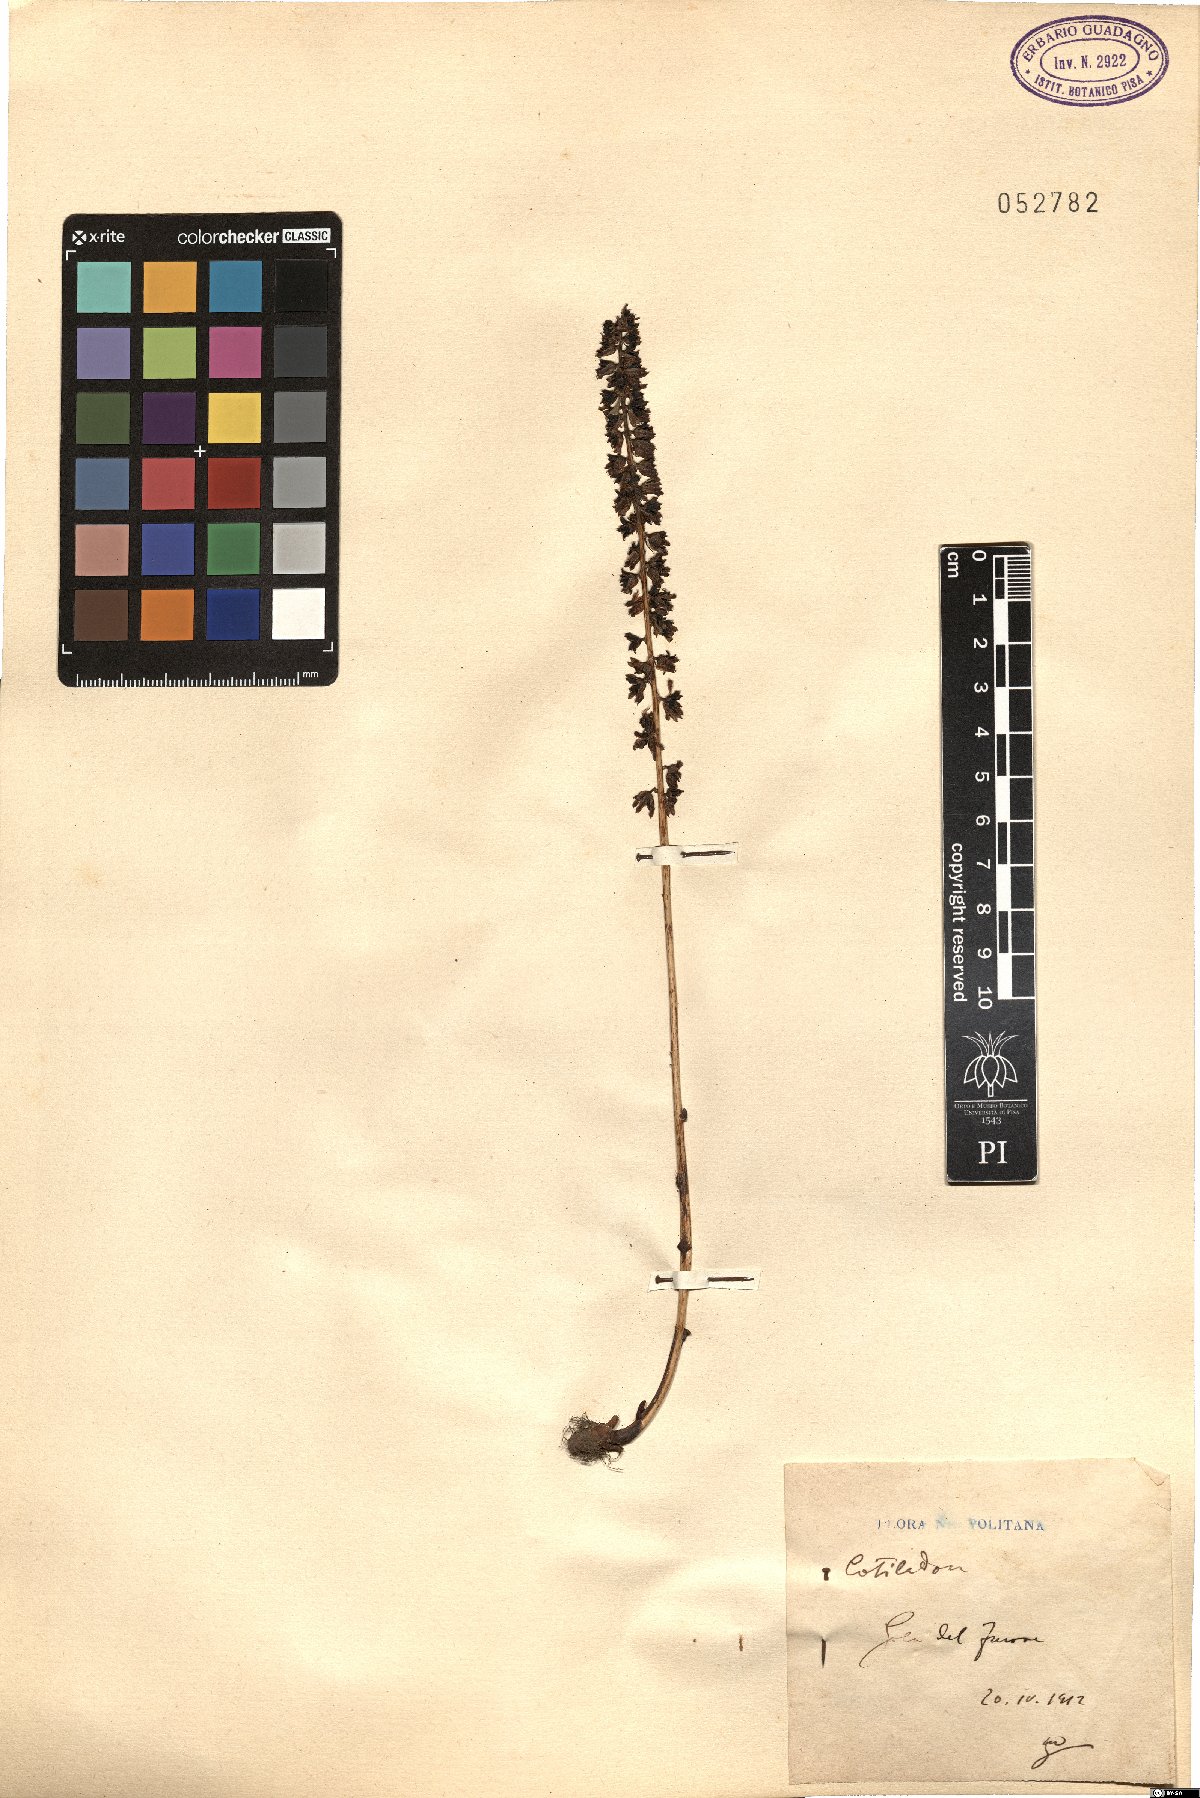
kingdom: Plantae
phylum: Tracheophyta
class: Magnoliopsida
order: Saxifragales
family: Crassulaceae
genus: Cotyledon
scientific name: Cotyledon
